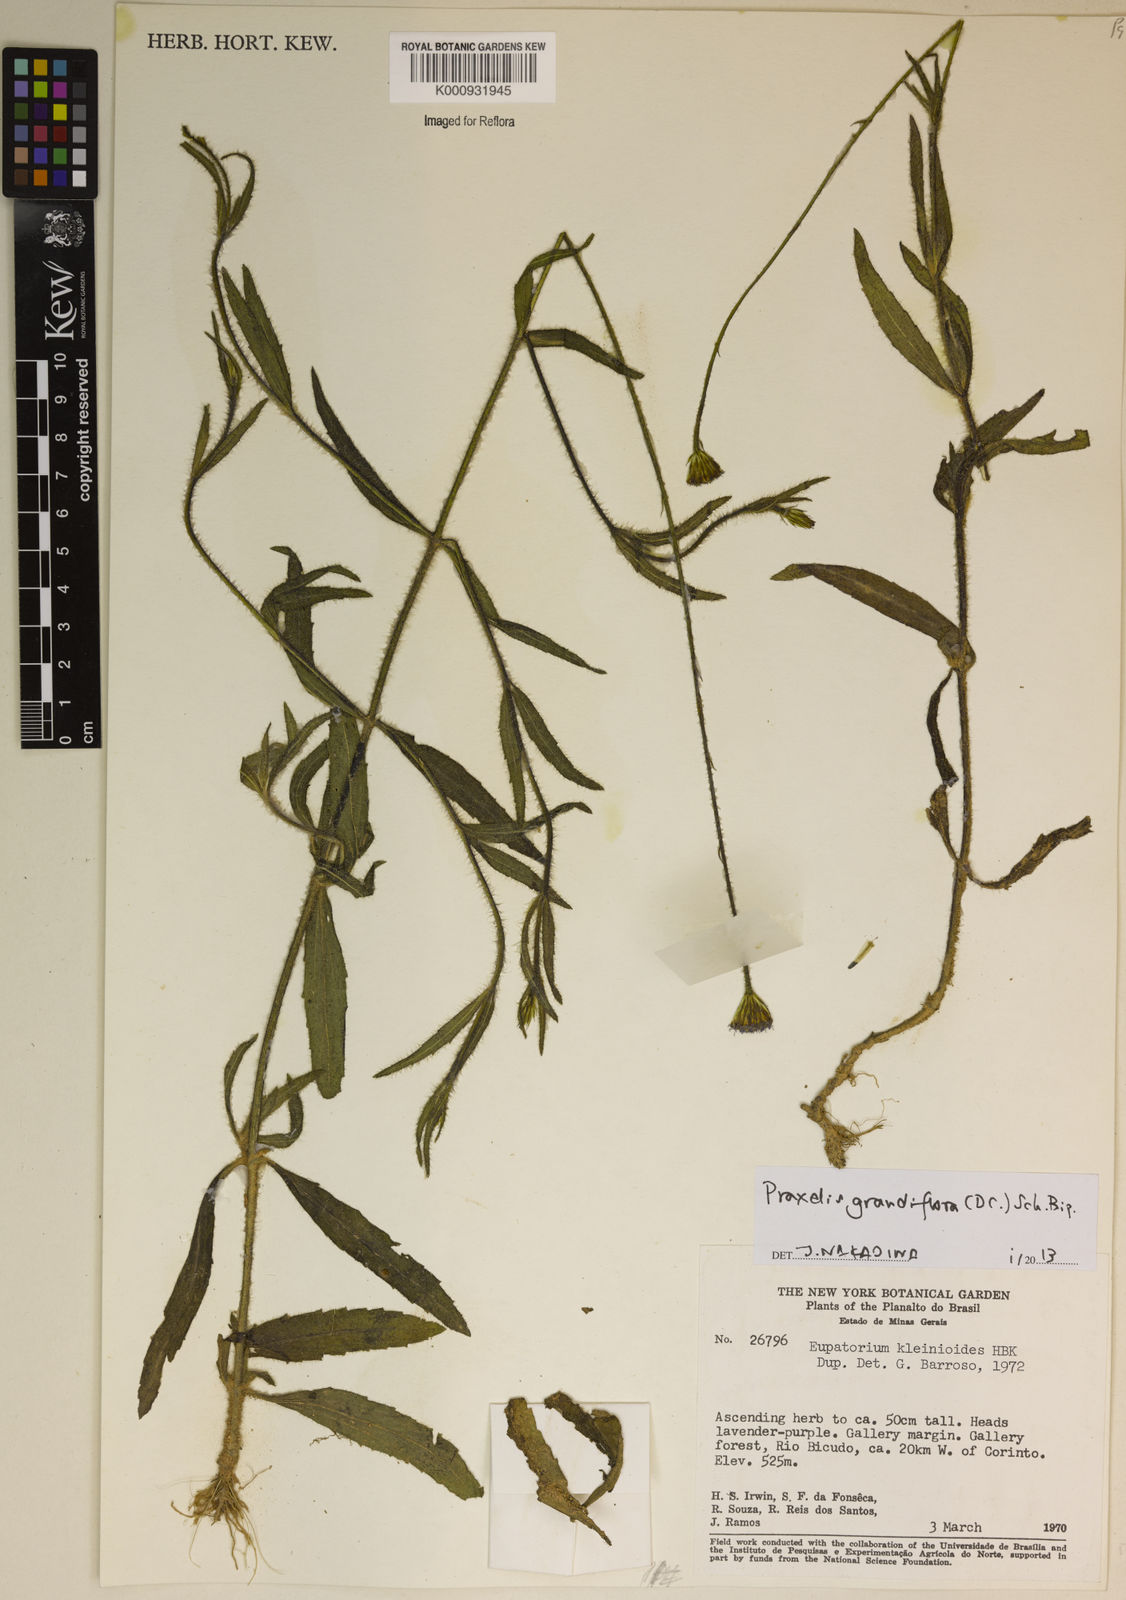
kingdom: Plantae
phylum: Tracheophyta
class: Magnoliopsida
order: Asterales
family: Asteraceae
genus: Praxelis
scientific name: Praxelis grandiflora
